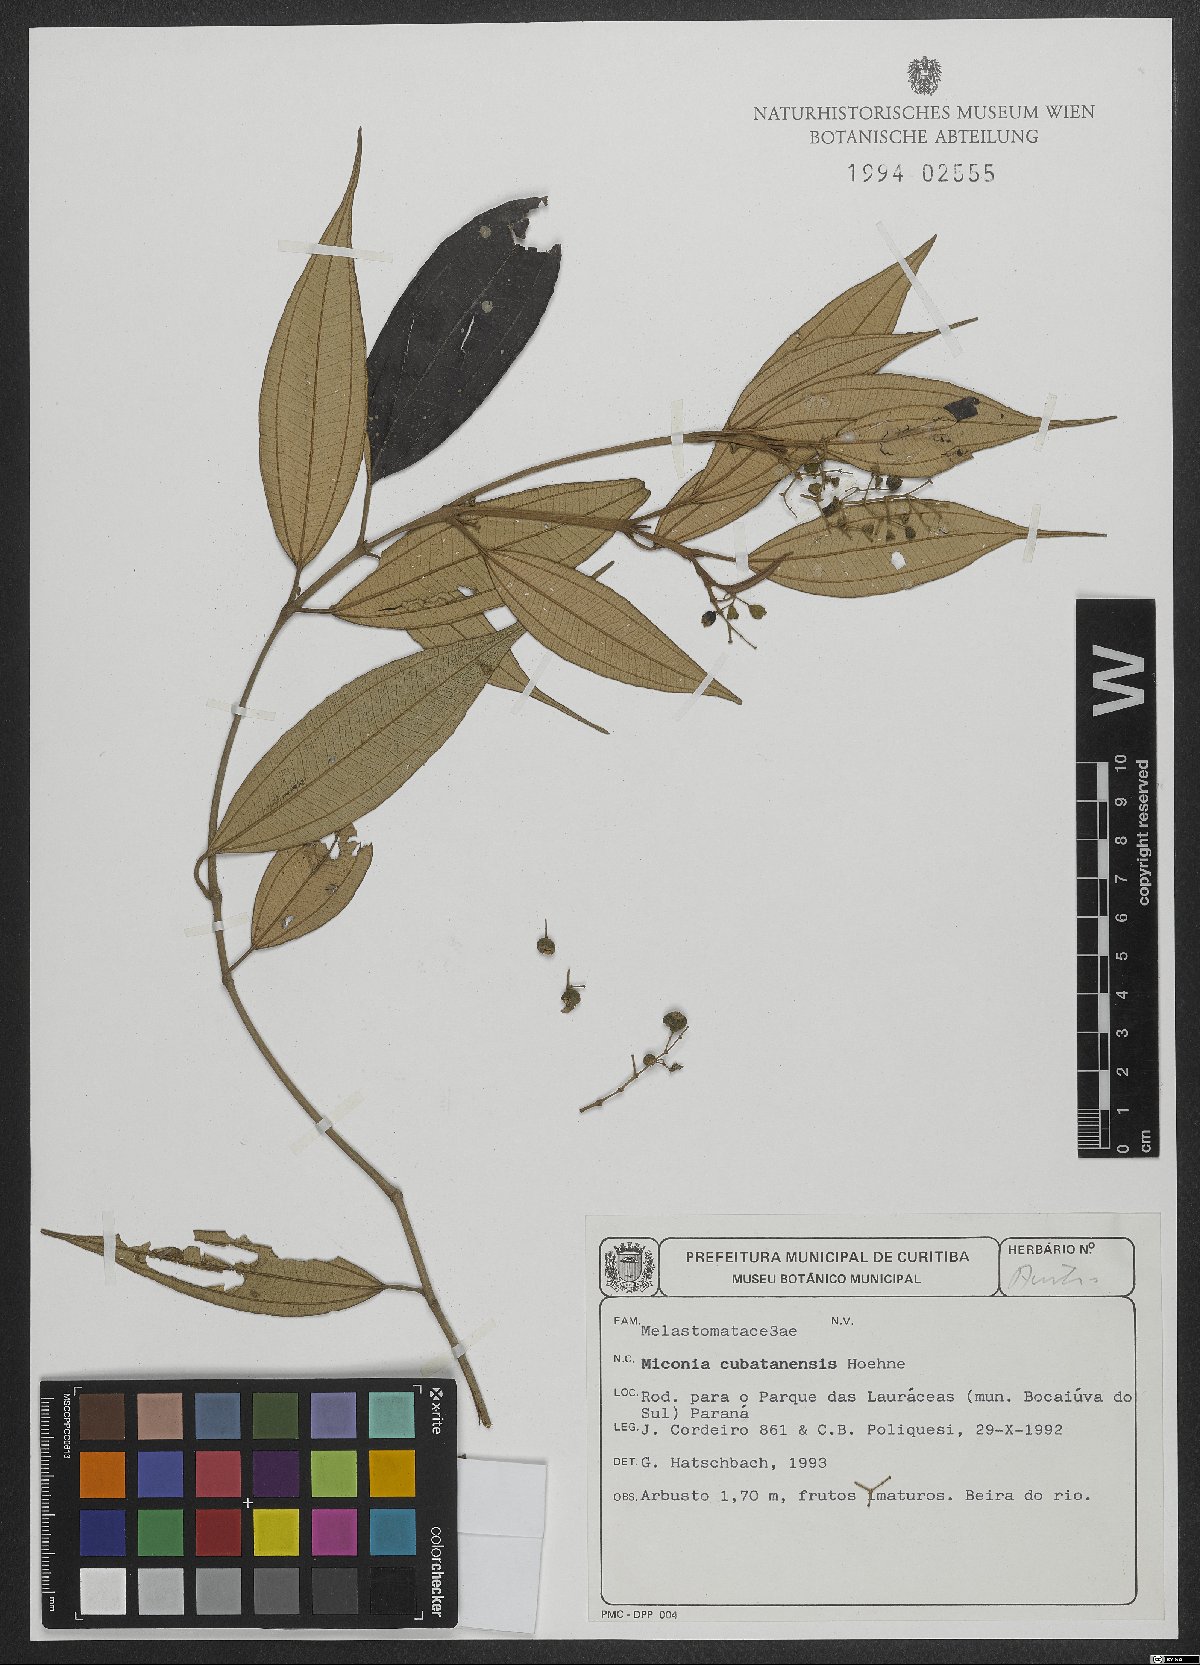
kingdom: Plantae
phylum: Tracheophyta
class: Magnoliopsida
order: Myrtales
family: Melastomataceae
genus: Miconia
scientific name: Miconia cubatanensis
